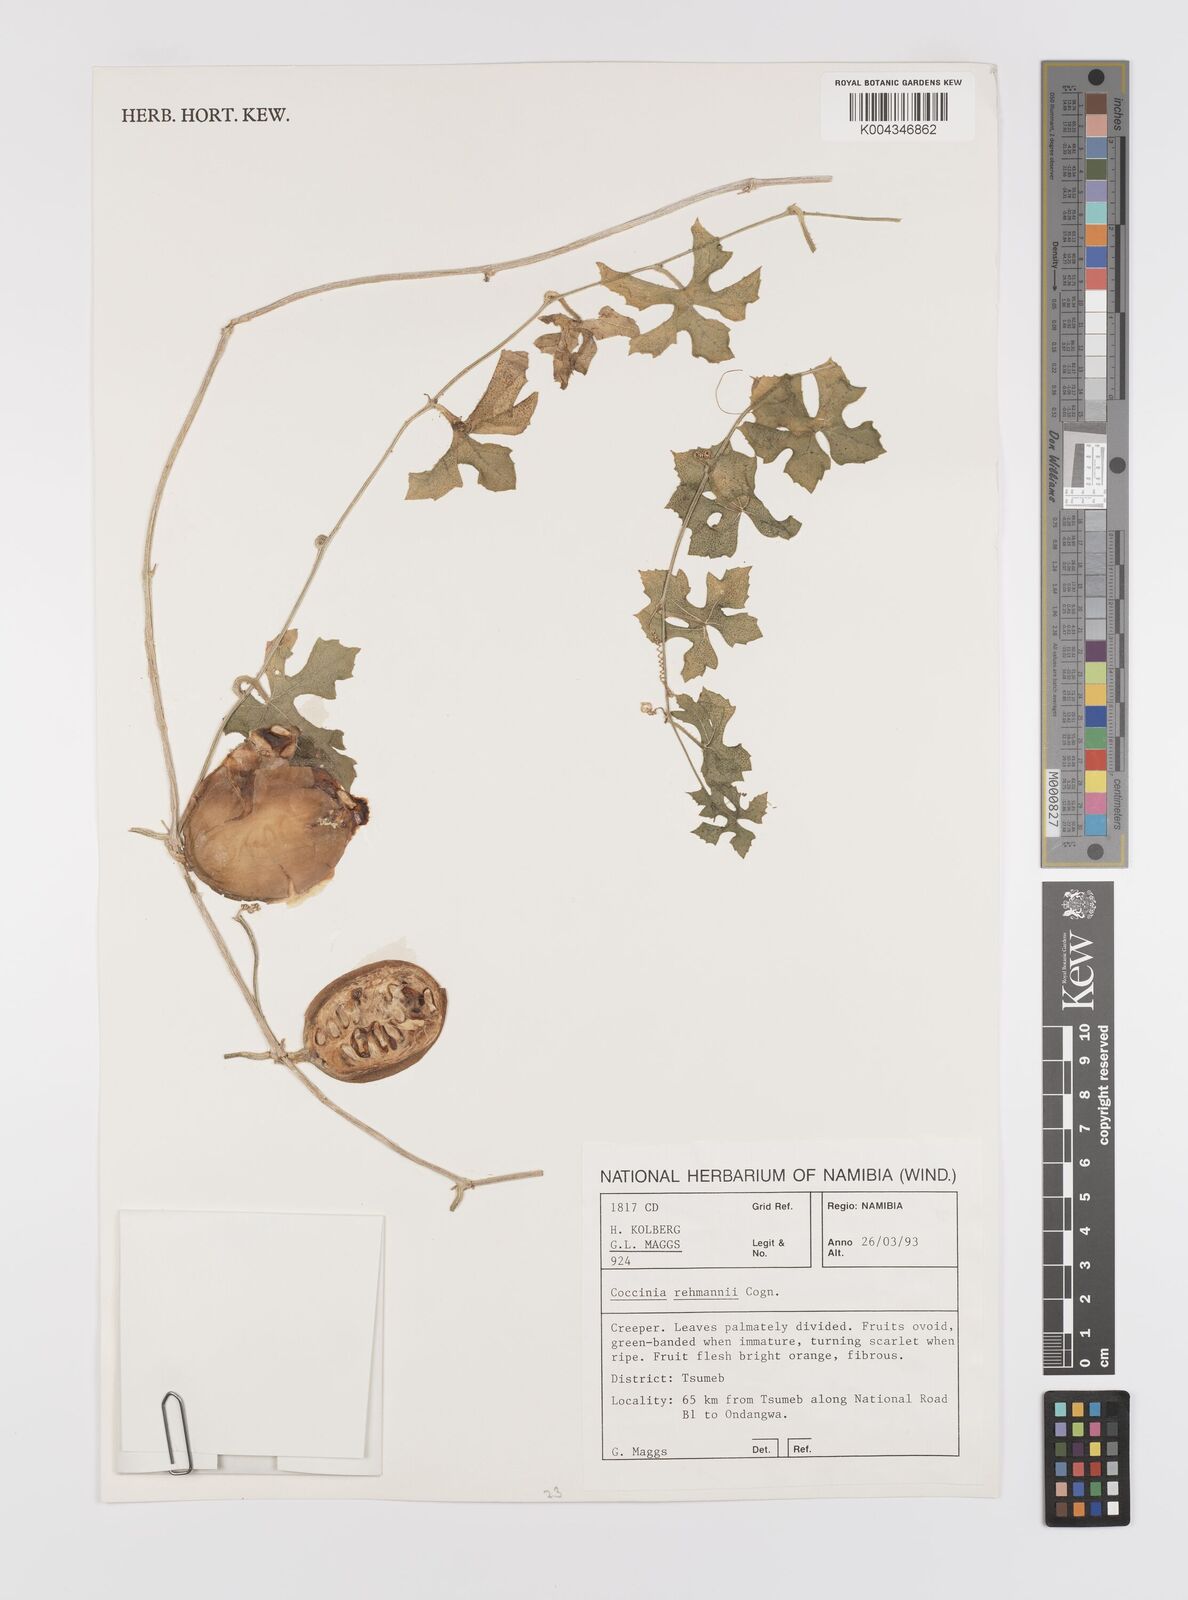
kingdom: Plantae
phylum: Tracheophyta
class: Magnoliopsida
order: Cucurbitales
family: Cucurbitaceae
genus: Coccinia
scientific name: Coccinia rehmannii
